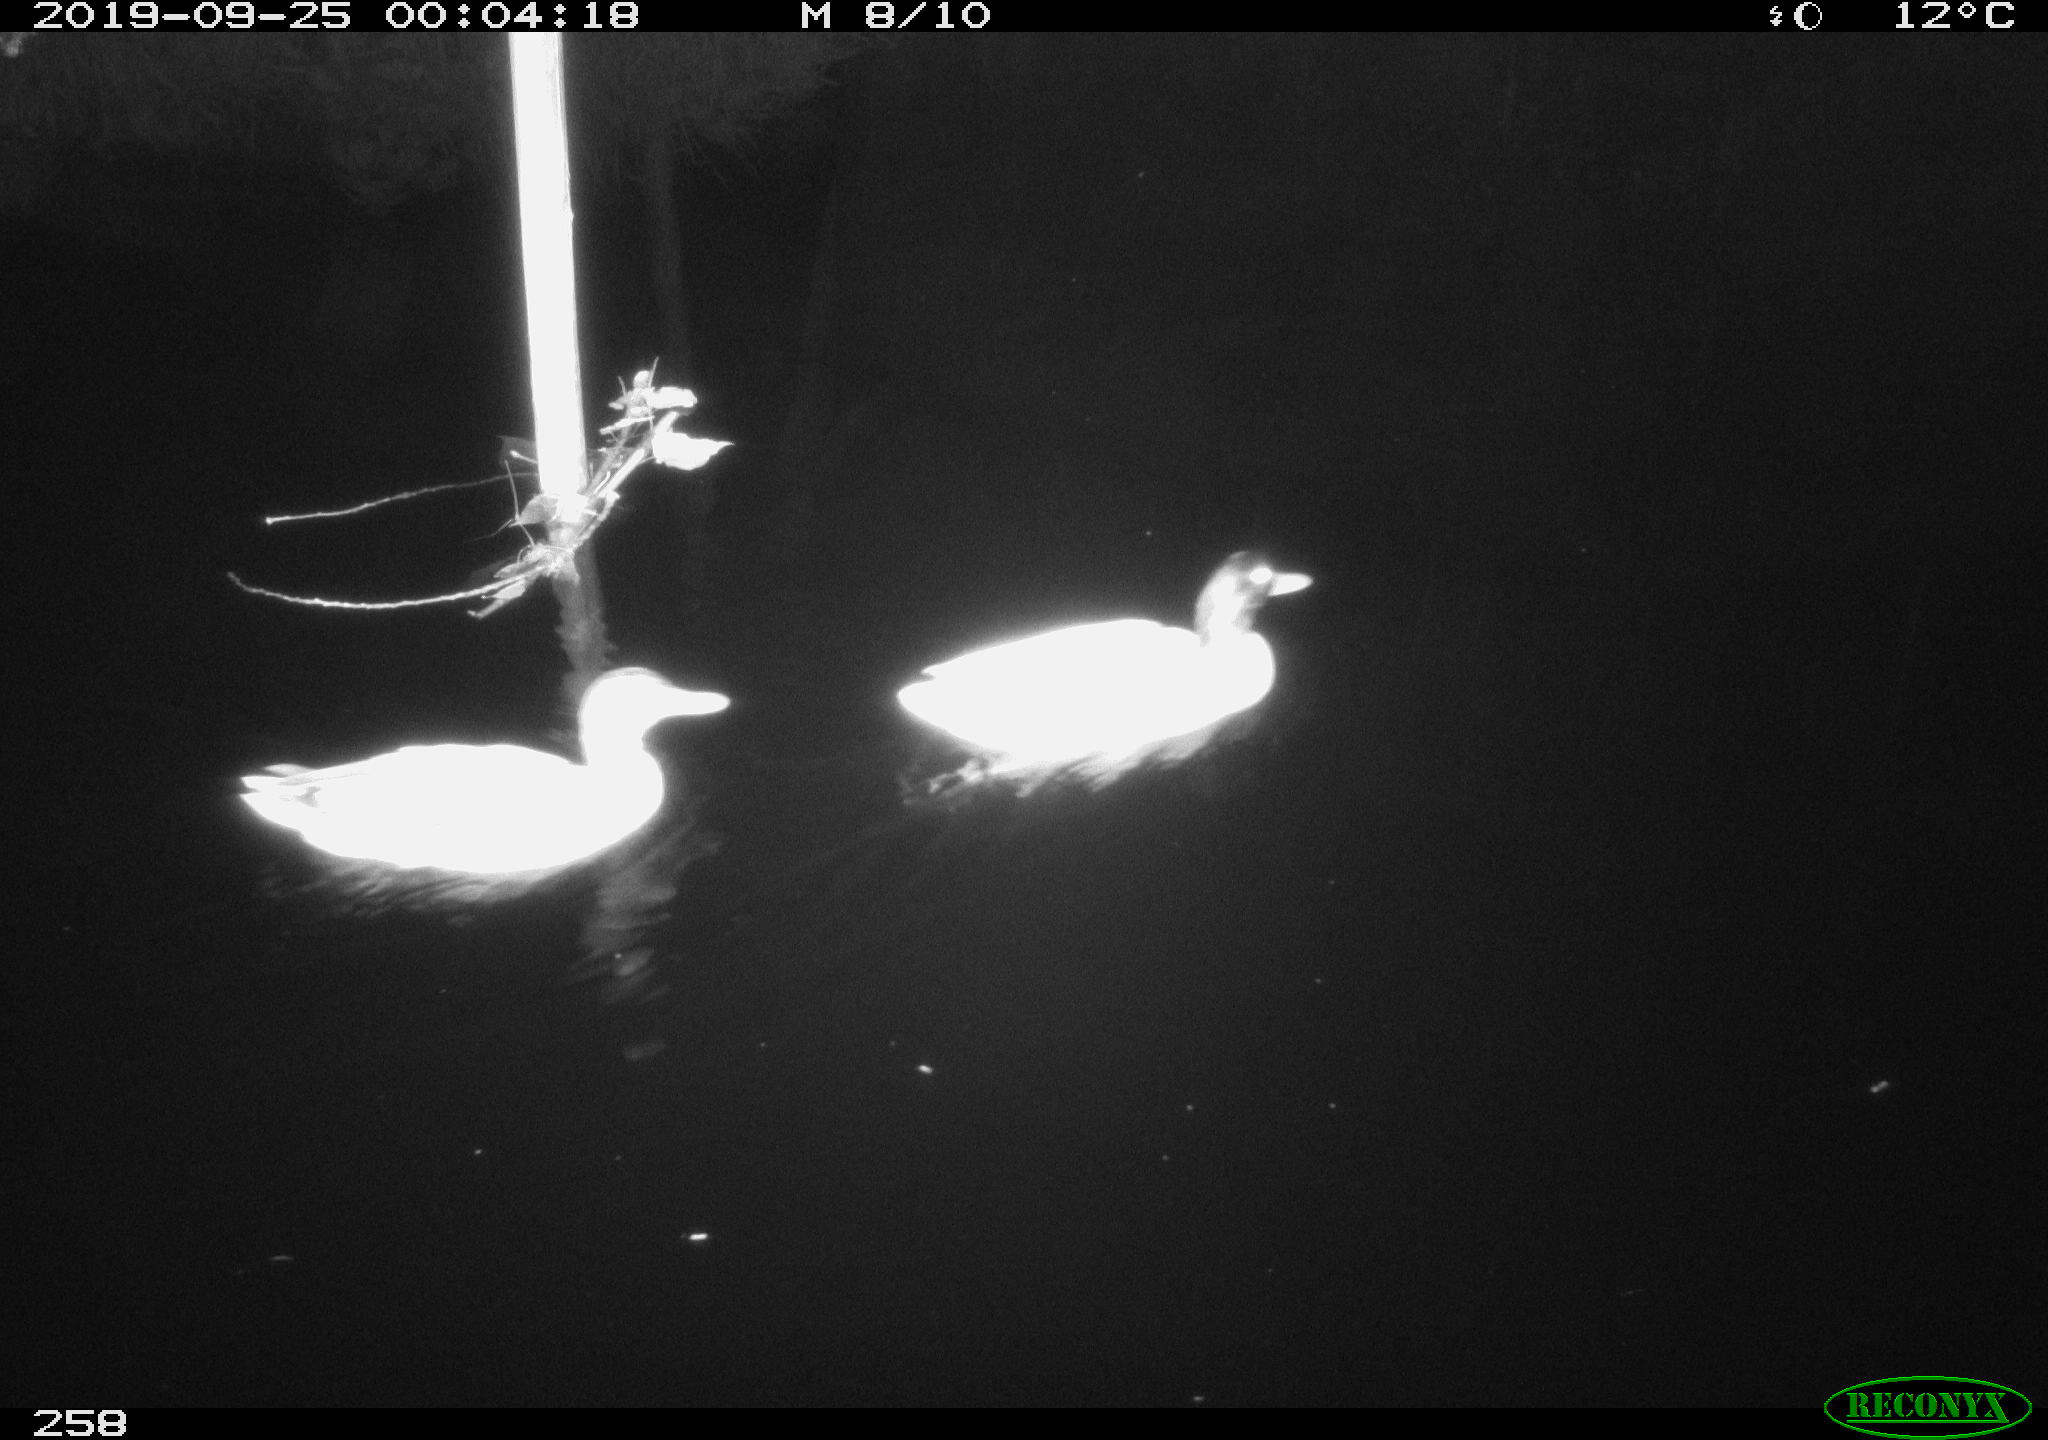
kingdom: Animalia
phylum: Chordata
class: Aves
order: Anseriformes
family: Anatidae
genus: Anas
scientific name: Anas platyrhynchos
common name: Mallard
